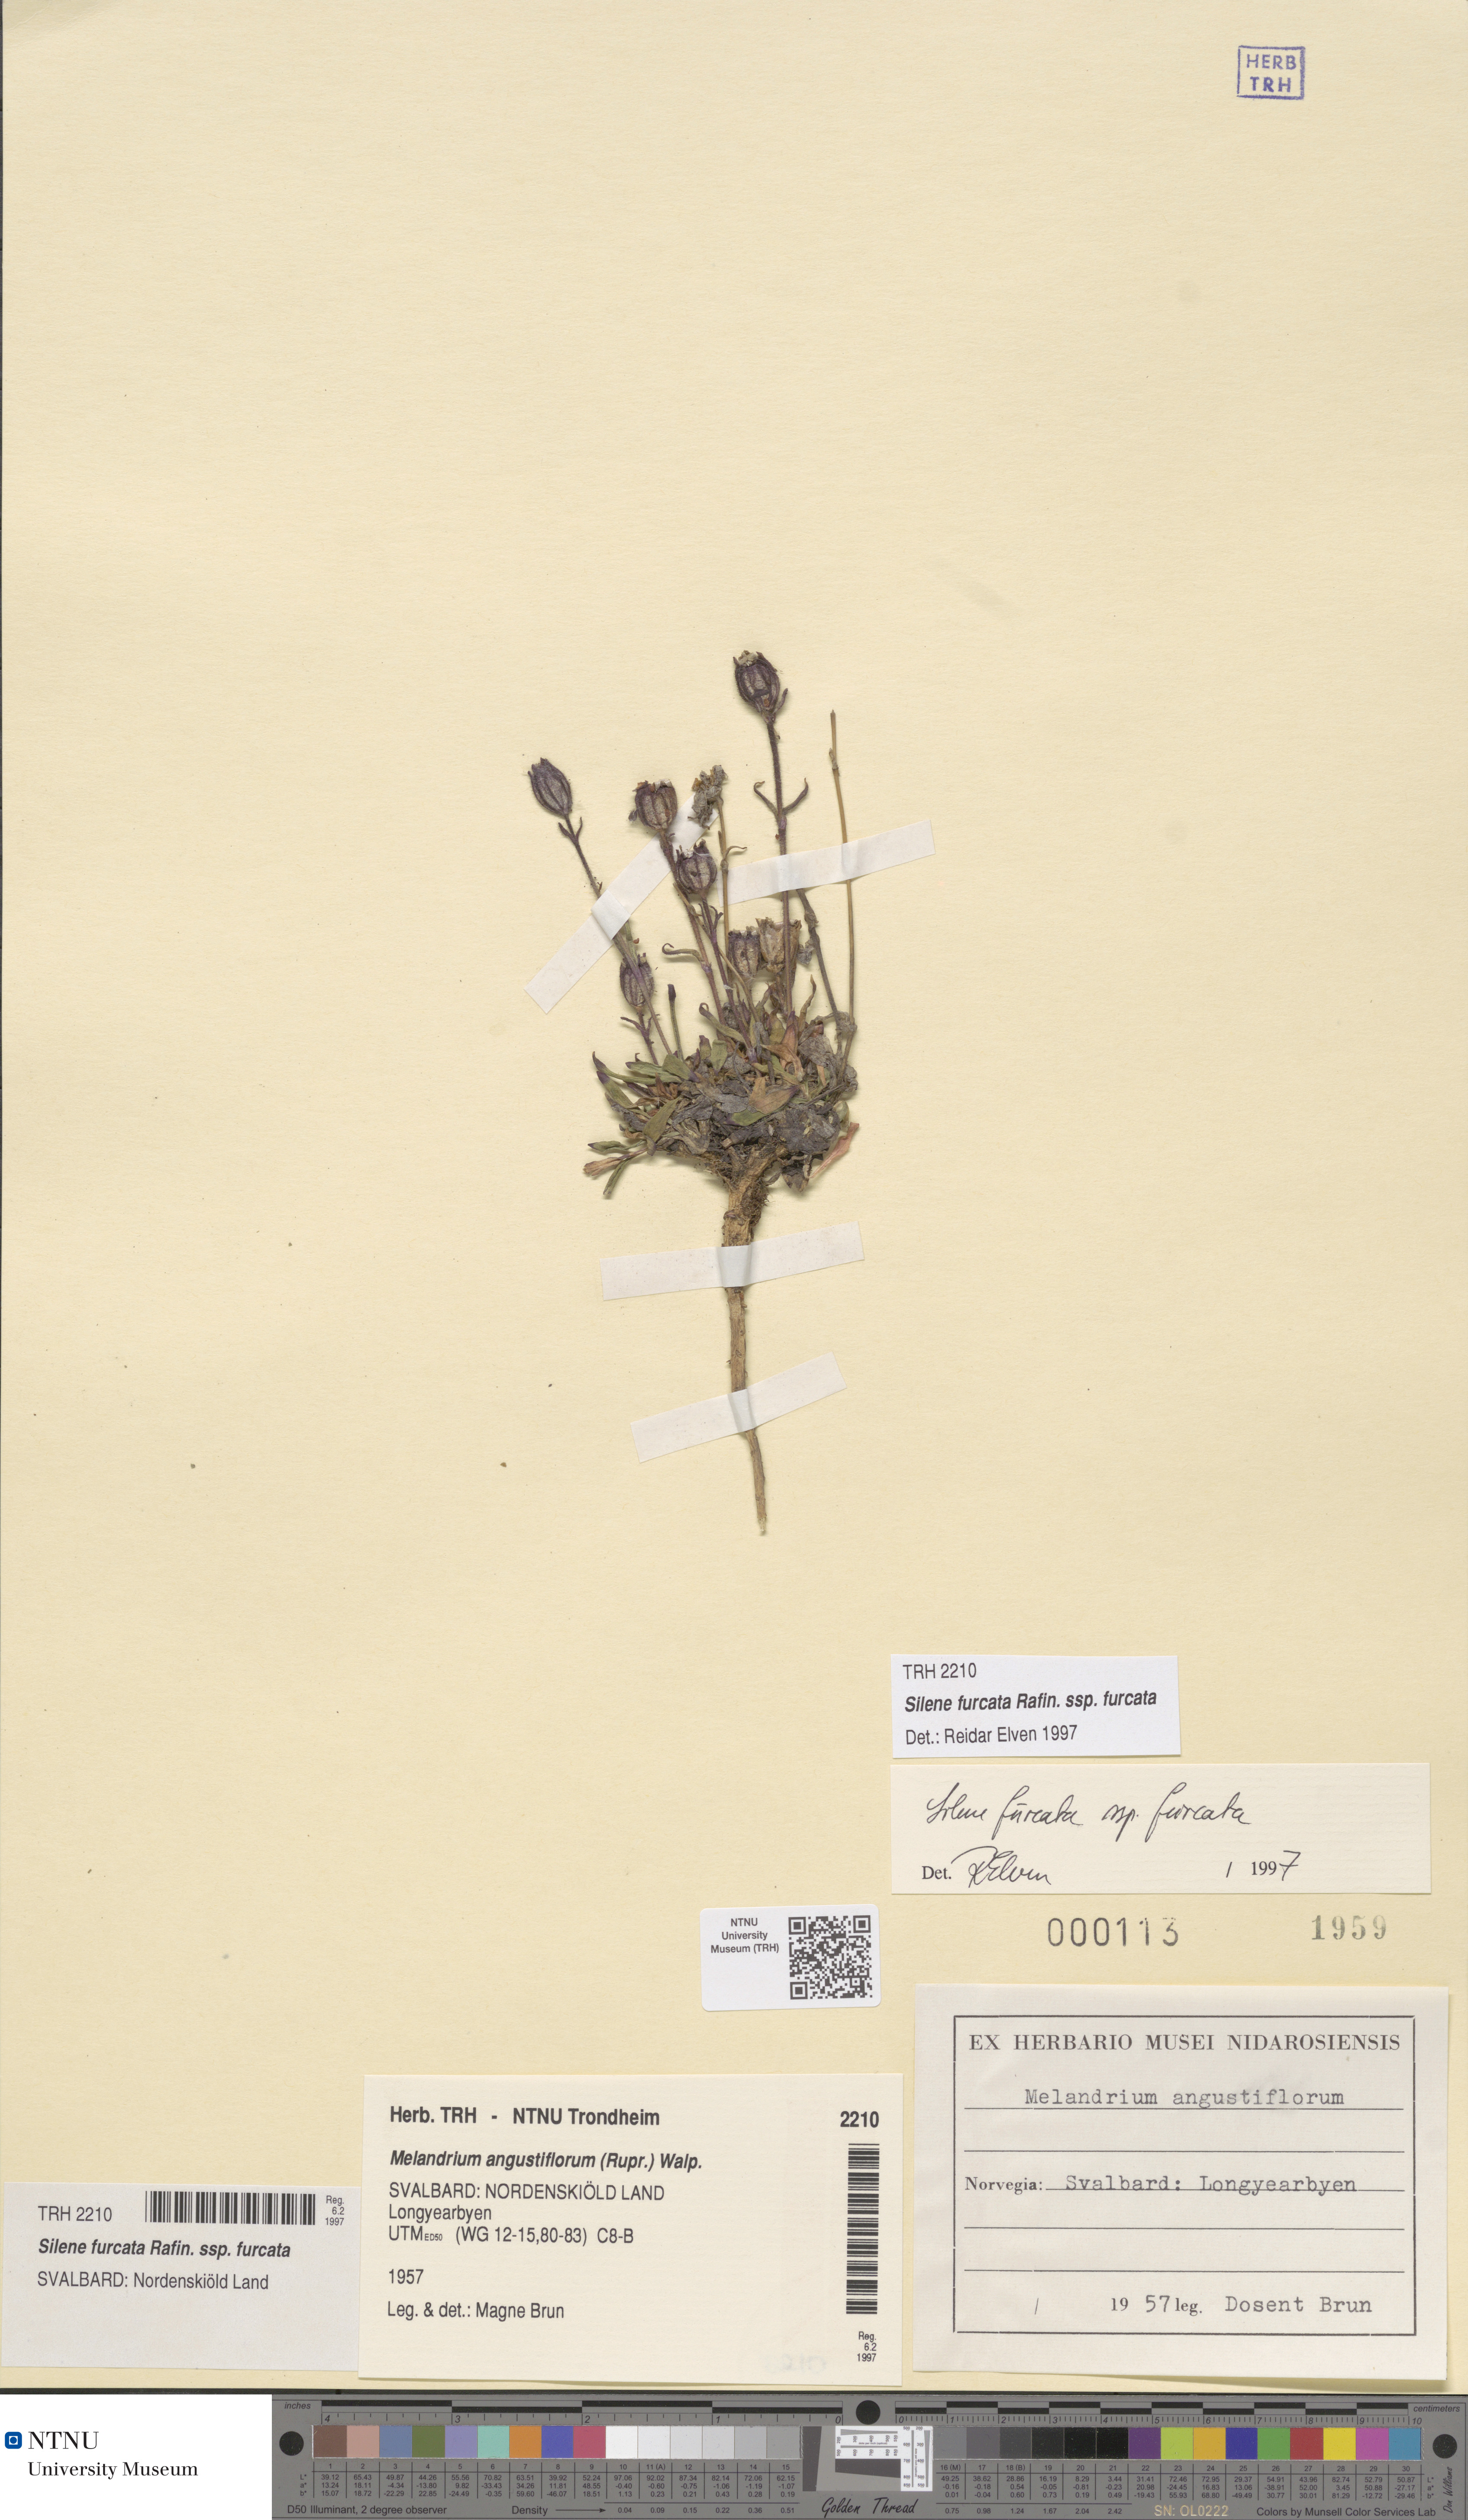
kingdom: Plantae
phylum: Tracheophyta
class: Magnoliopsida
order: Caryophyllales
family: Caryophyllaceae
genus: Silene
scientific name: Silene involucrata
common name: Greater arctic campion
